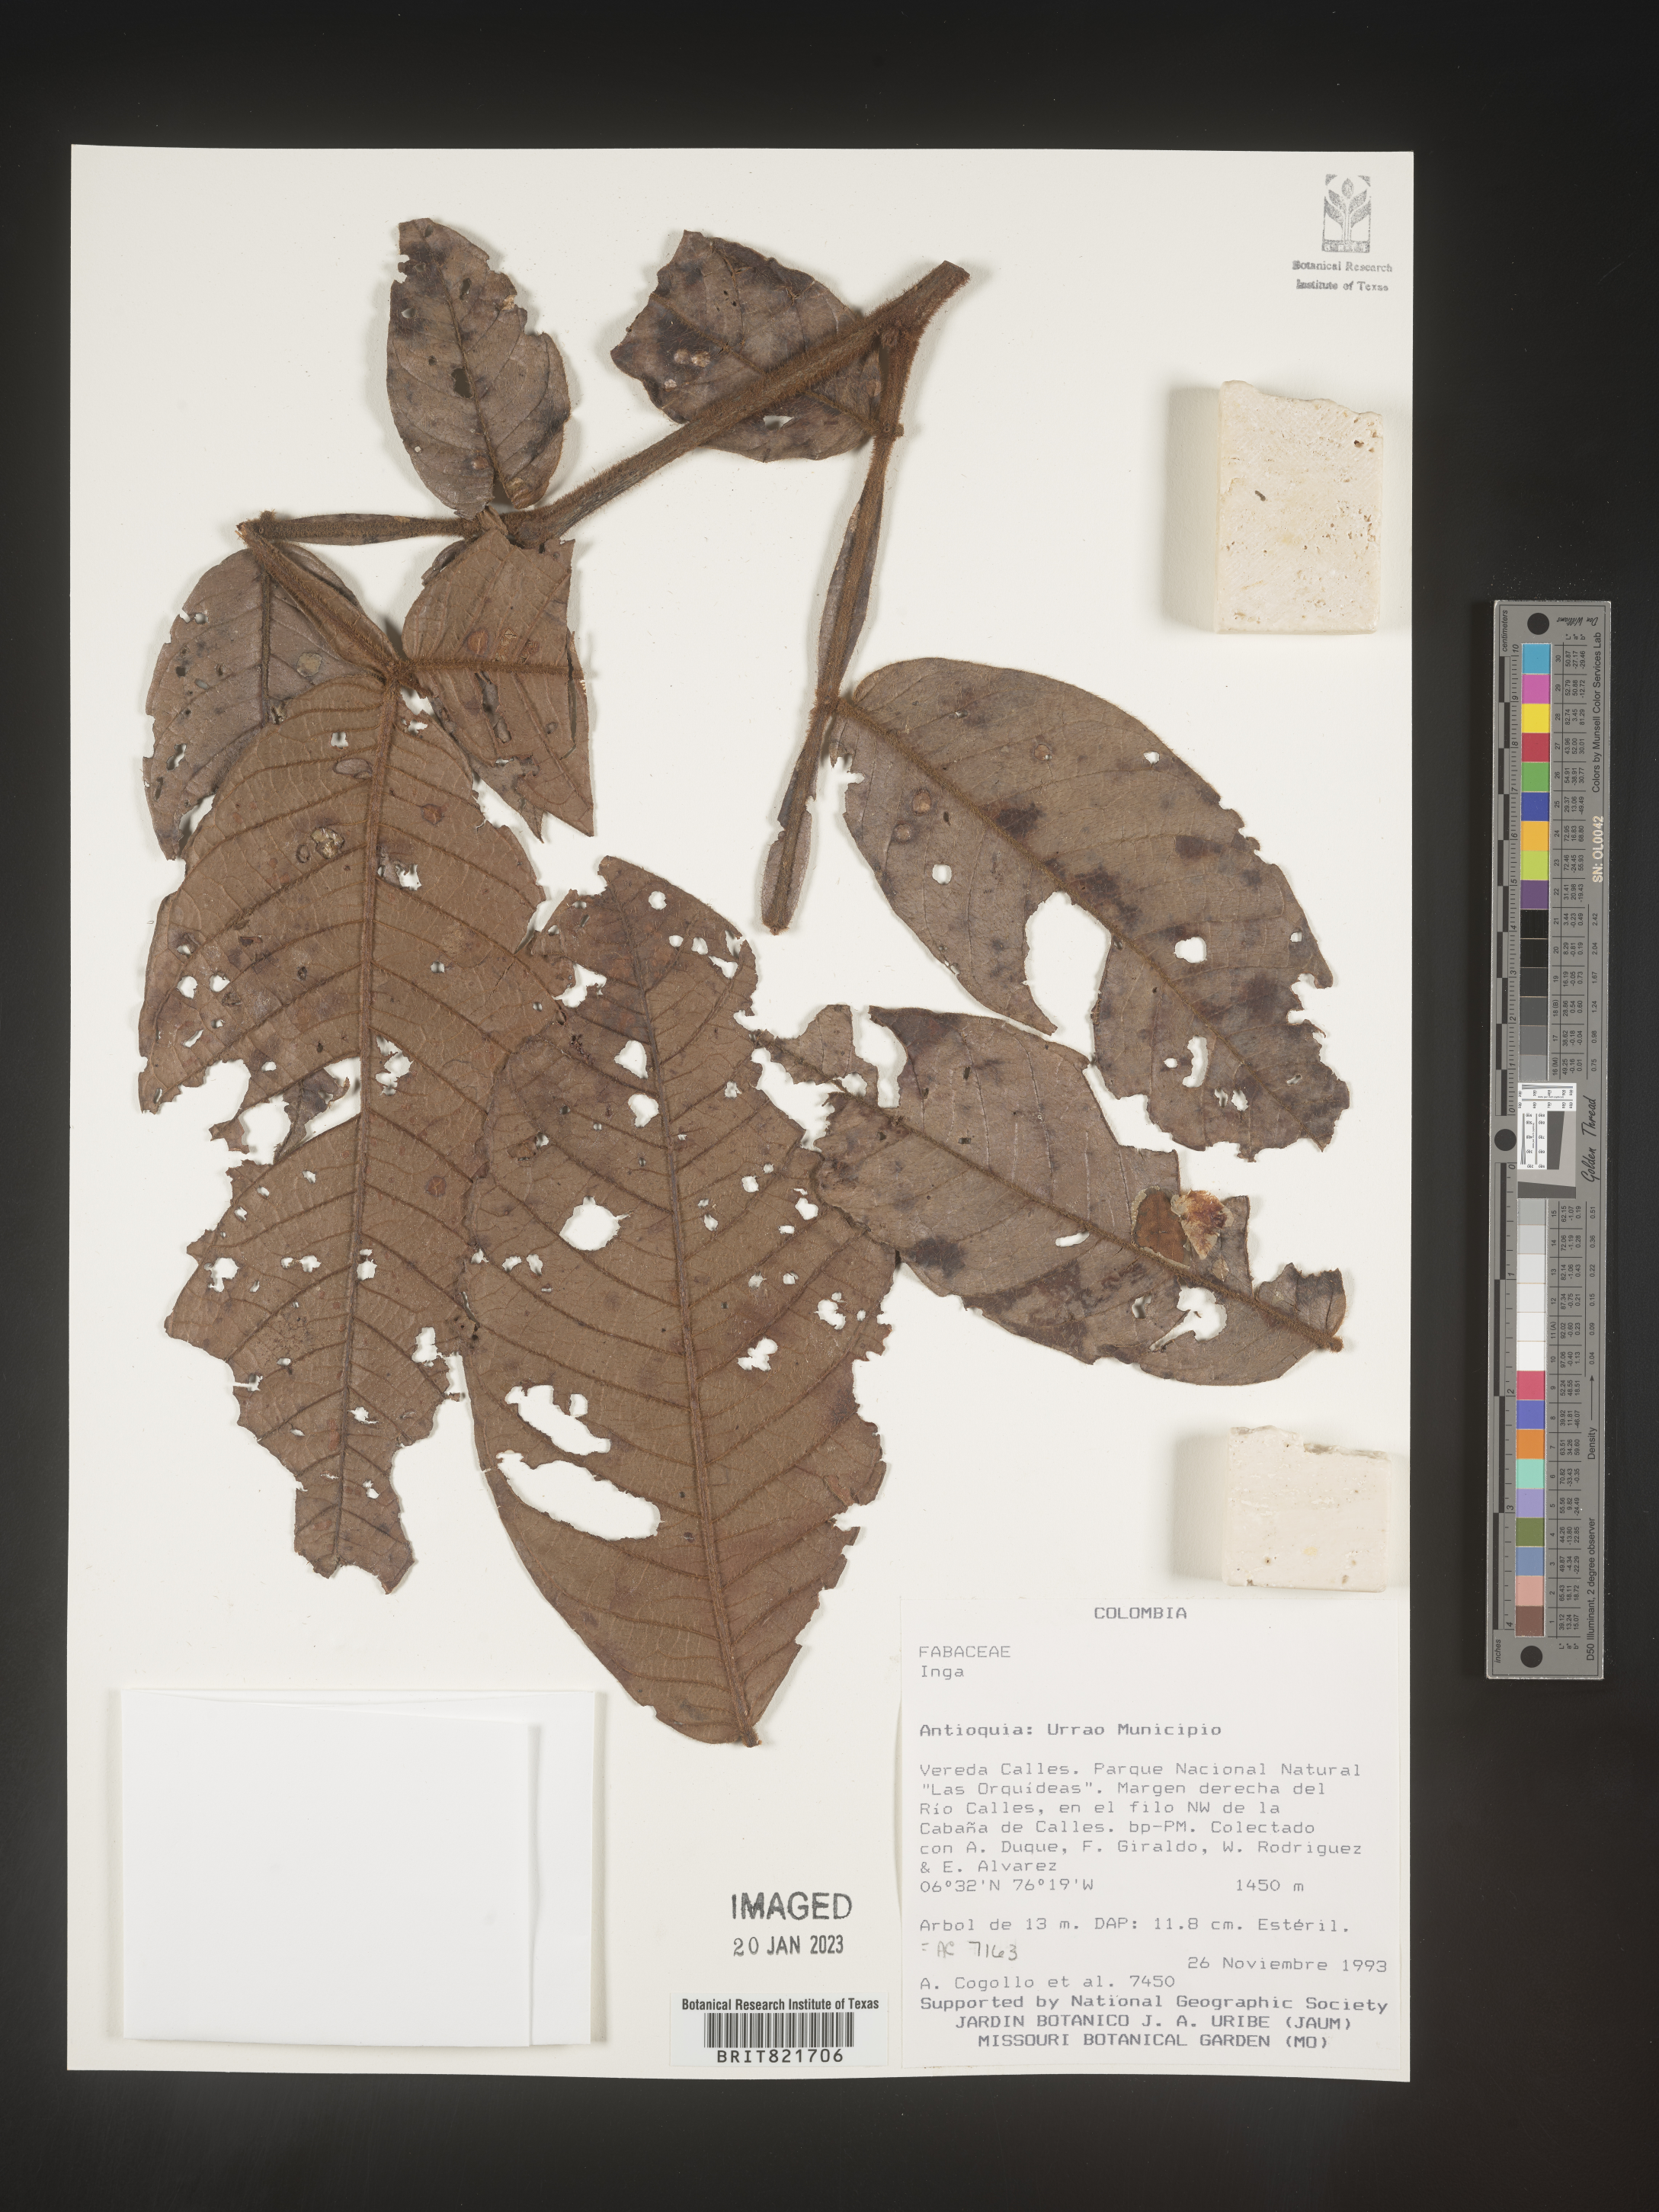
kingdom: Plantae
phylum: Tracheophyta
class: Magnoliopsida
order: Fabales
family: Fabaceae
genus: Inga
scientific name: Inga
